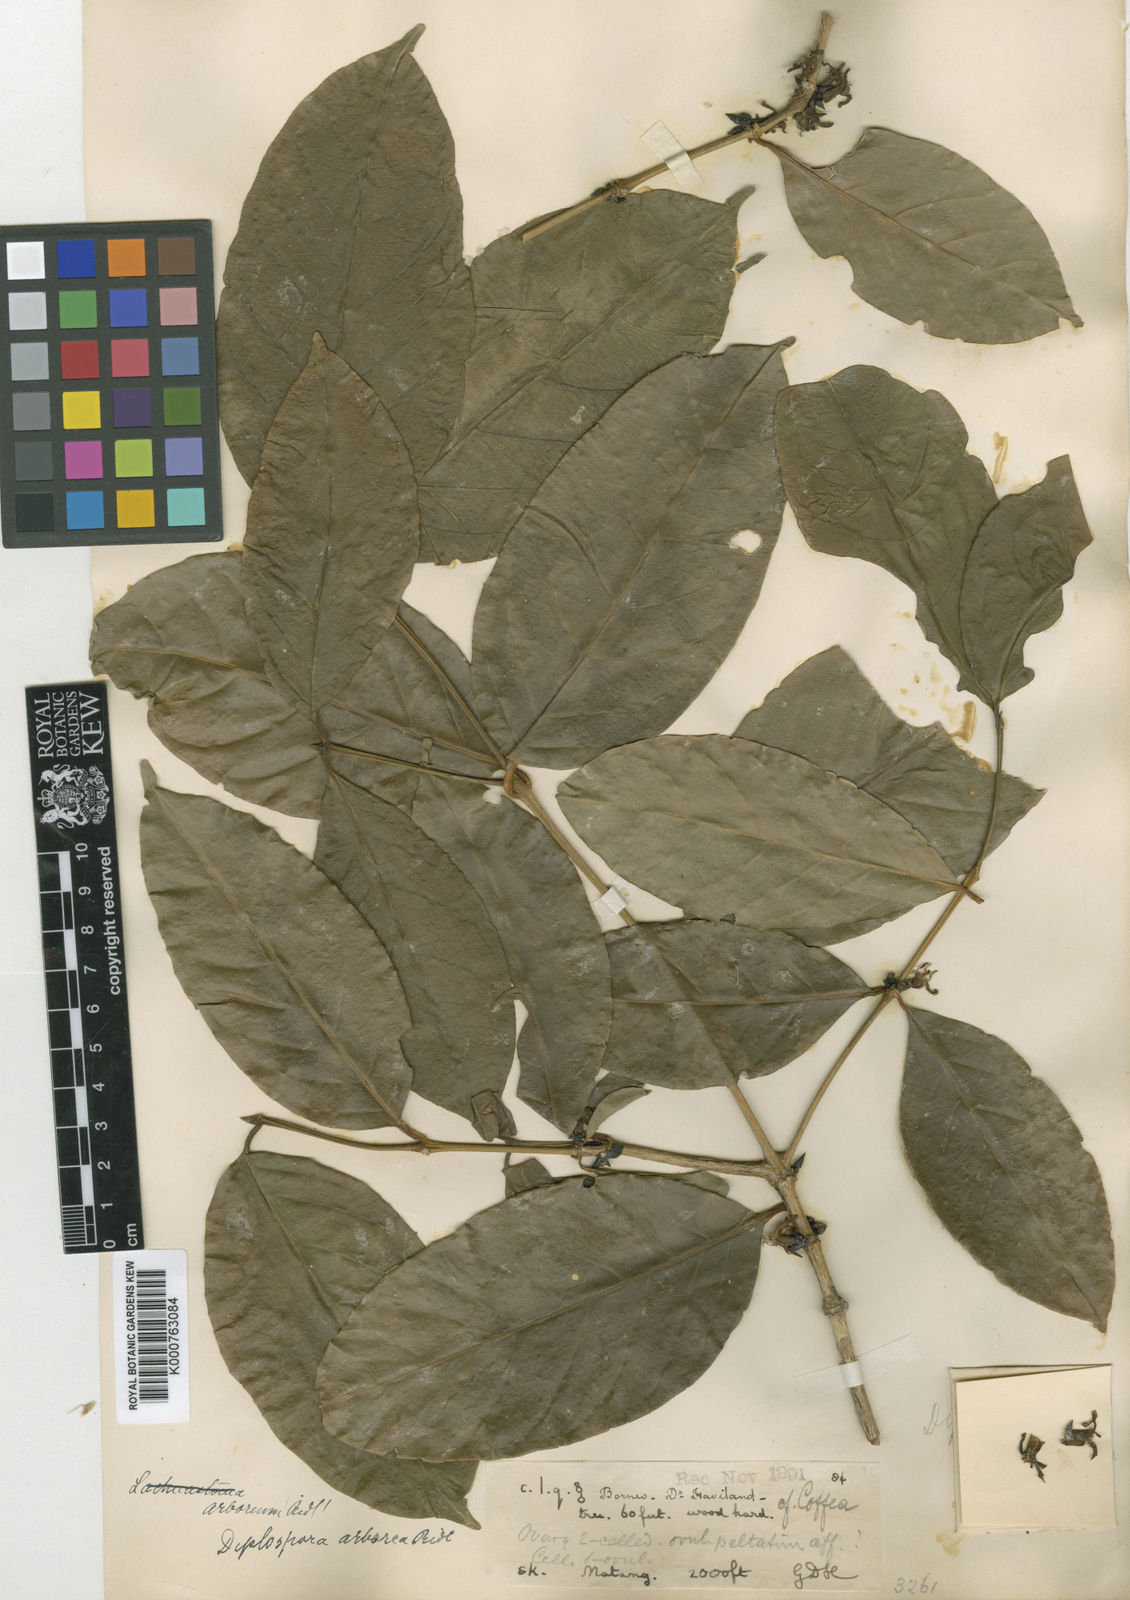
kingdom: Plantae
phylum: Tracheophyta
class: Magnoliopsida
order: Gentianales
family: Rubiaceae
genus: Discospermum
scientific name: Discospermum
